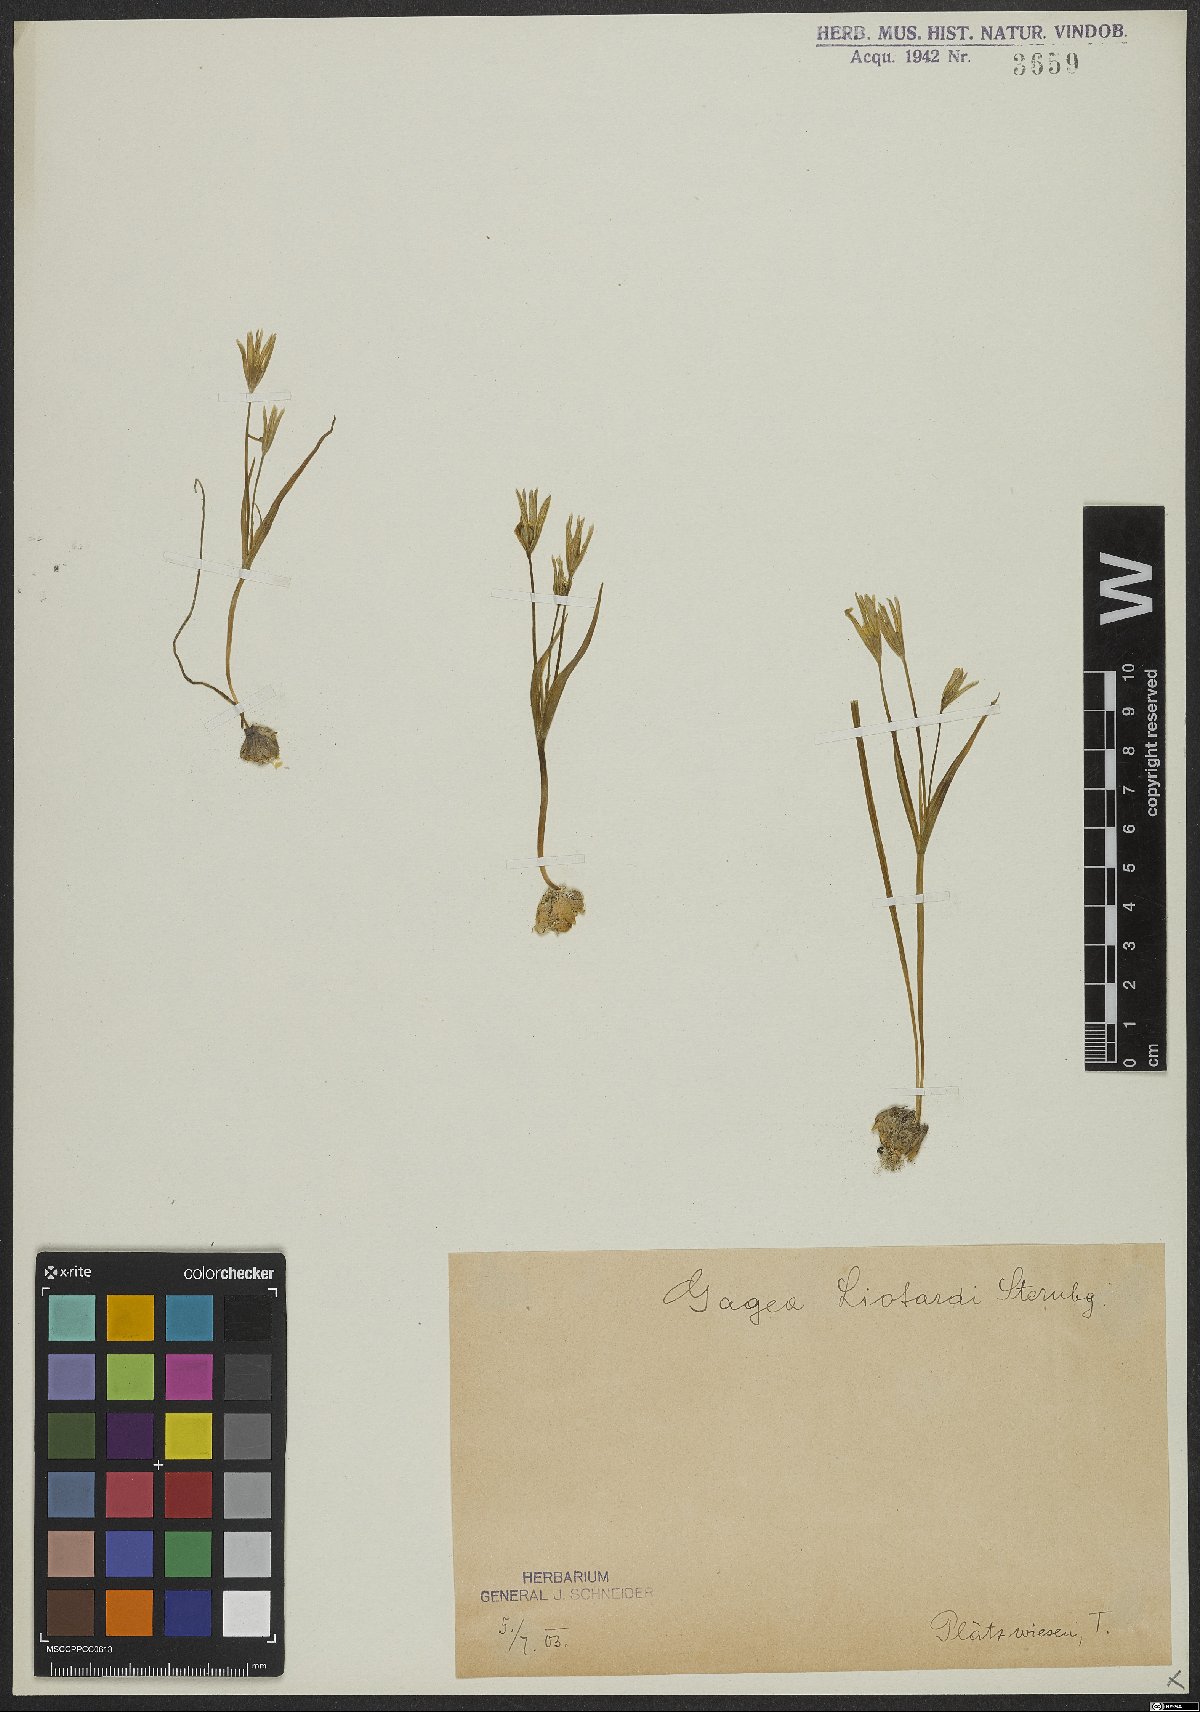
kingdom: Plantae
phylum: Tracheophyta
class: Liliopsida
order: Liliales
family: Liliaceae
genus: Gagea
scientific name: Gagea fragifera
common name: Lily
